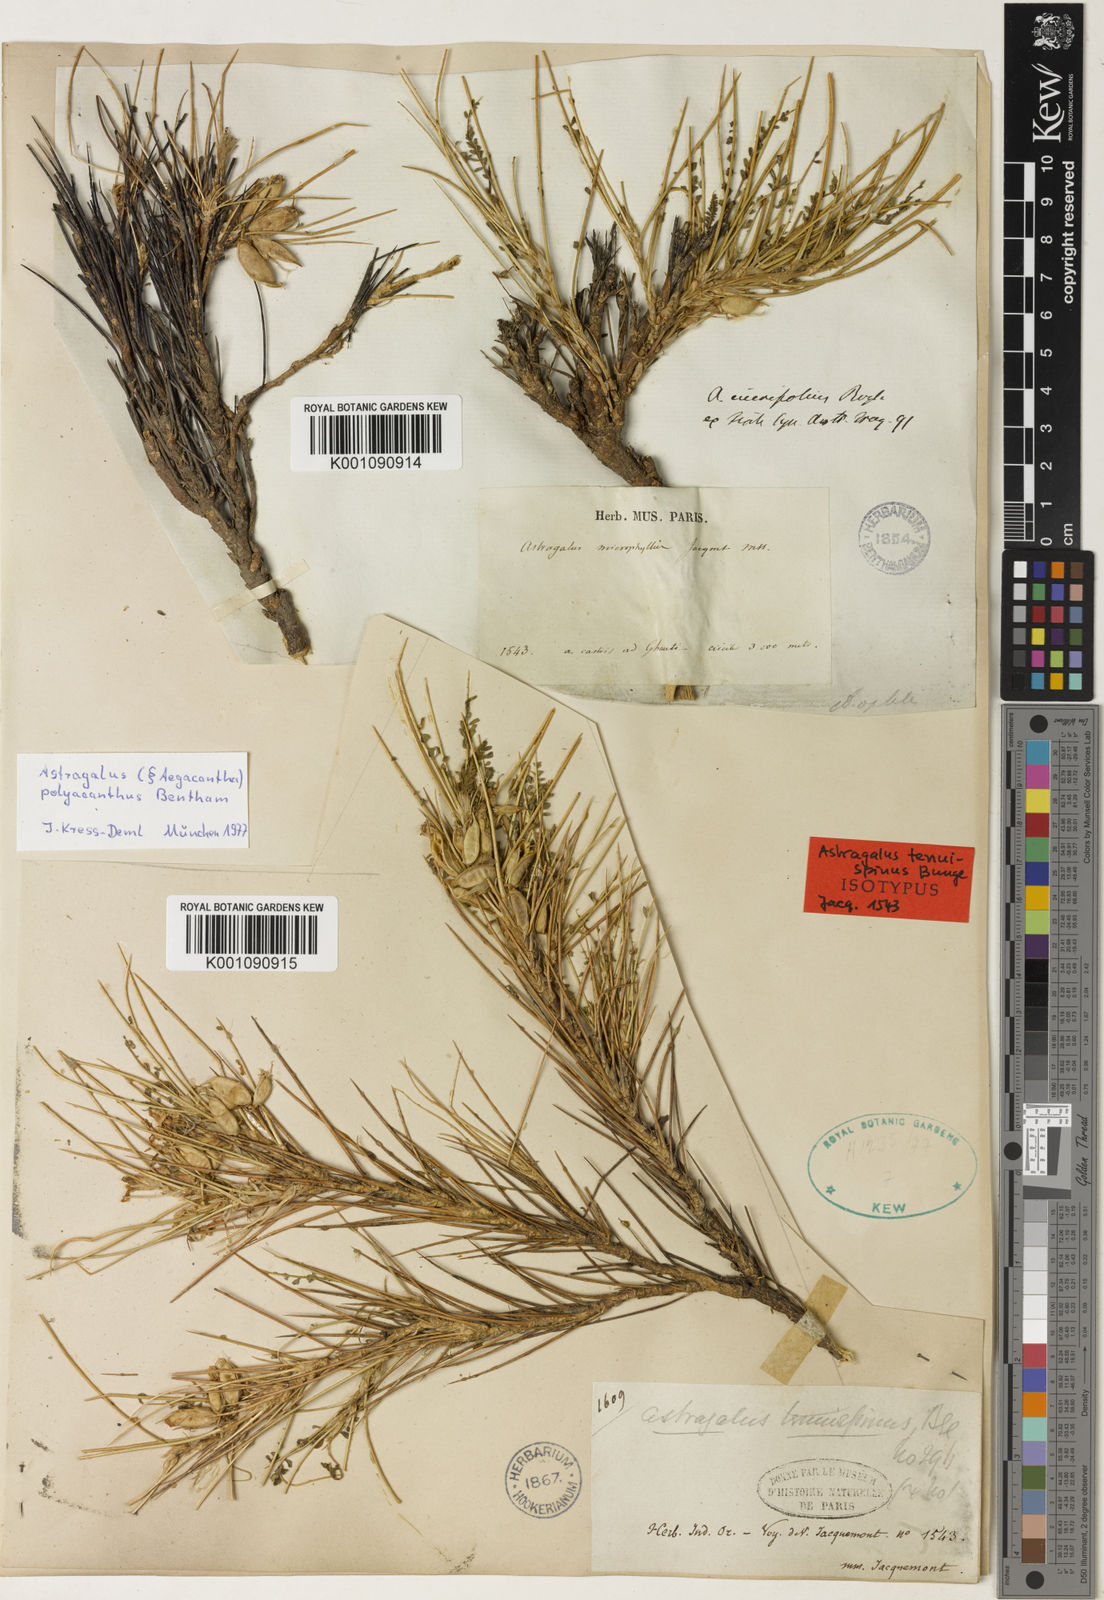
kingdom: Plantae
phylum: Tracheophyta
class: Magnoliopsida
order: Fabales
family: Fabaceae
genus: Astragalus
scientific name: Astragalus
